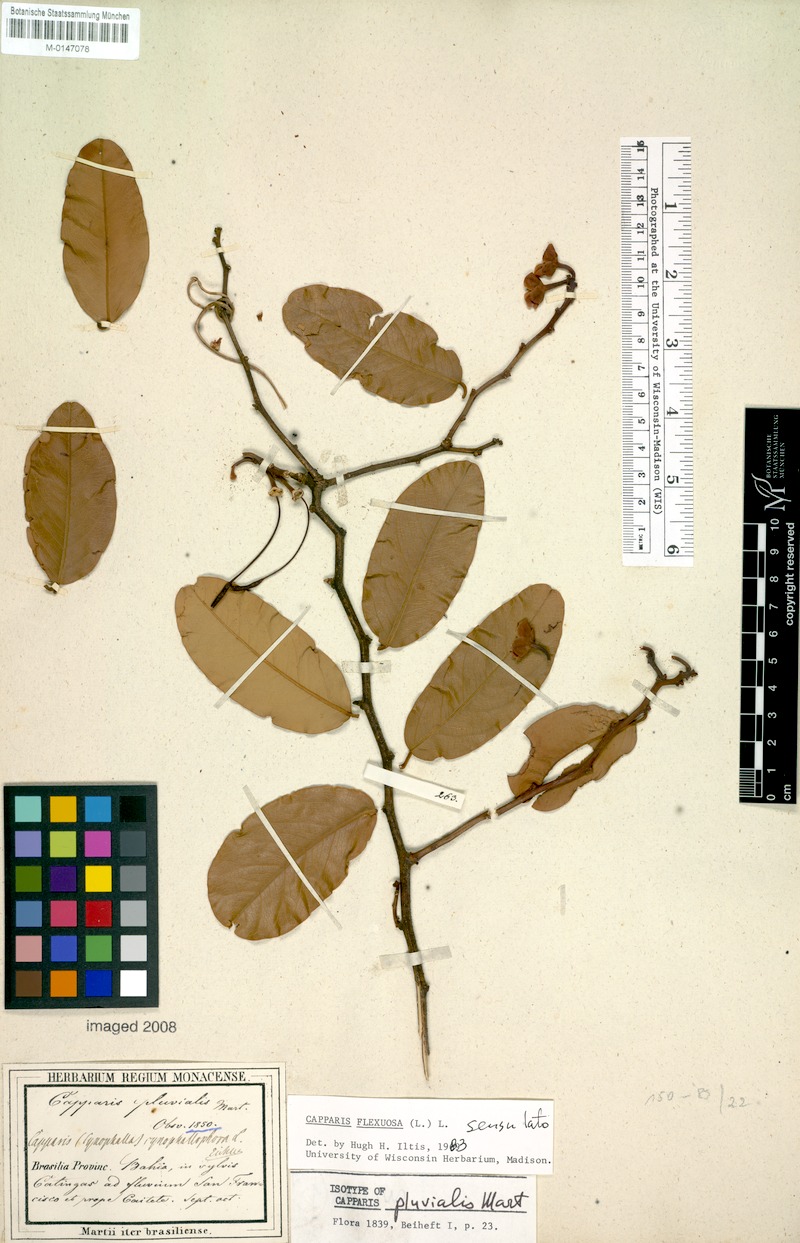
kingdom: Plantae
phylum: Tracheophyta
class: Magnoliopsida
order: Brassicales
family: Capparaceae
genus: Cynophalla
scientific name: Cynophalla flexuosa
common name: Capertree
